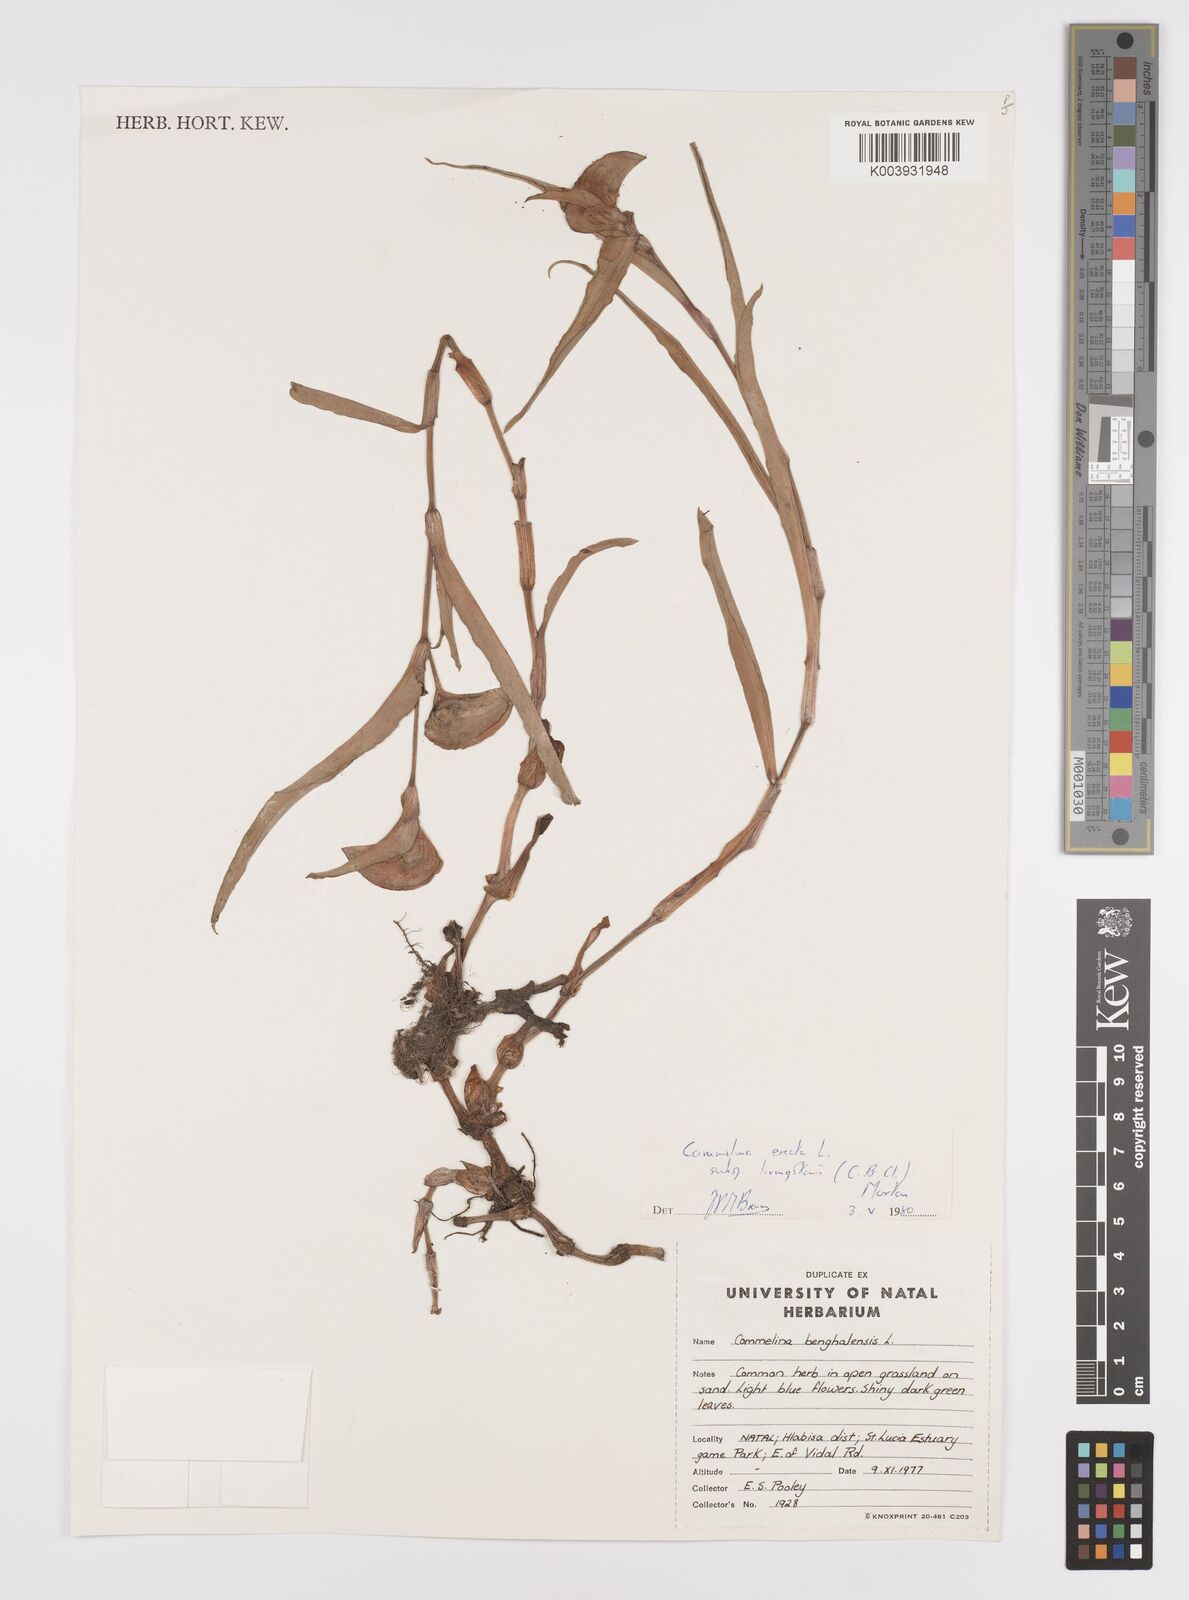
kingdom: Plantae
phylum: Tracheophyta
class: Liliopsida
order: Commelinales
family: Commelinaceae
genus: Commelina
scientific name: Commelina erecta
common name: Blousel blommetjie
